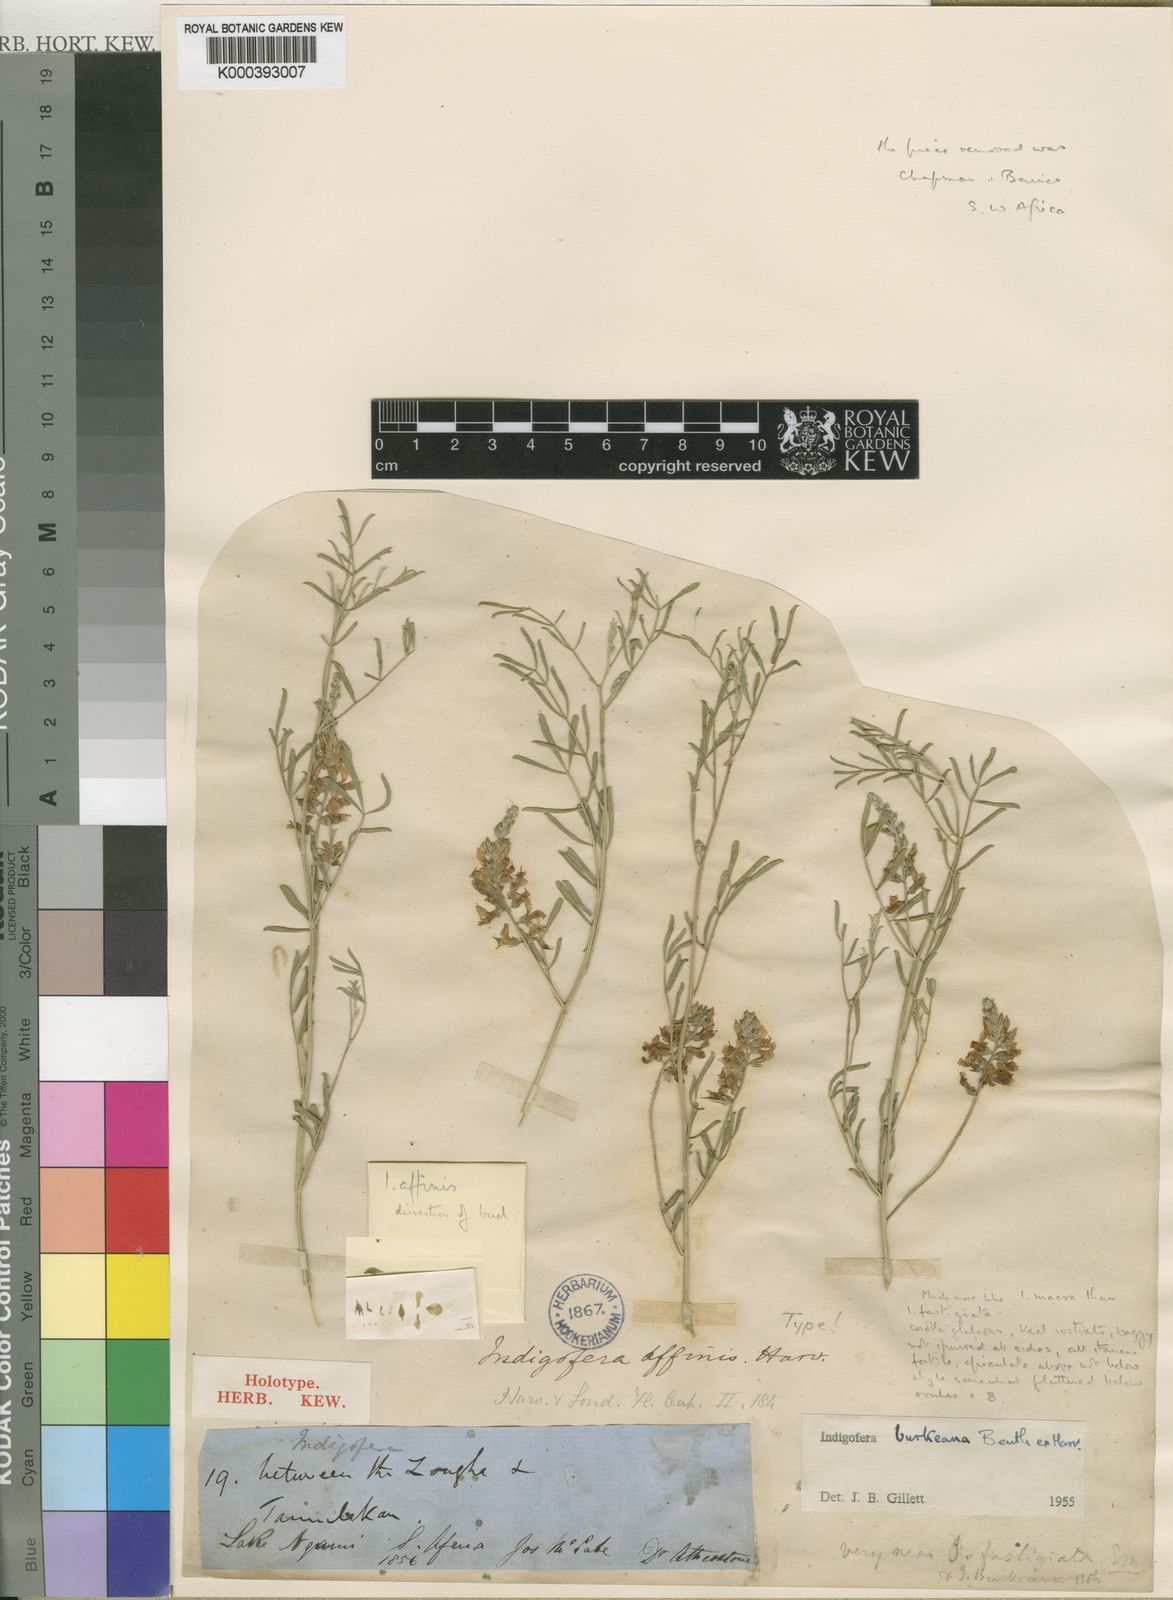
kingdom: Plantae
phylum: Tracheophyta
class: Magnoliopsida
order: Fabales
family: Fabaceae
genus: Indigastrum
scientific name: Indigastrum costatum
